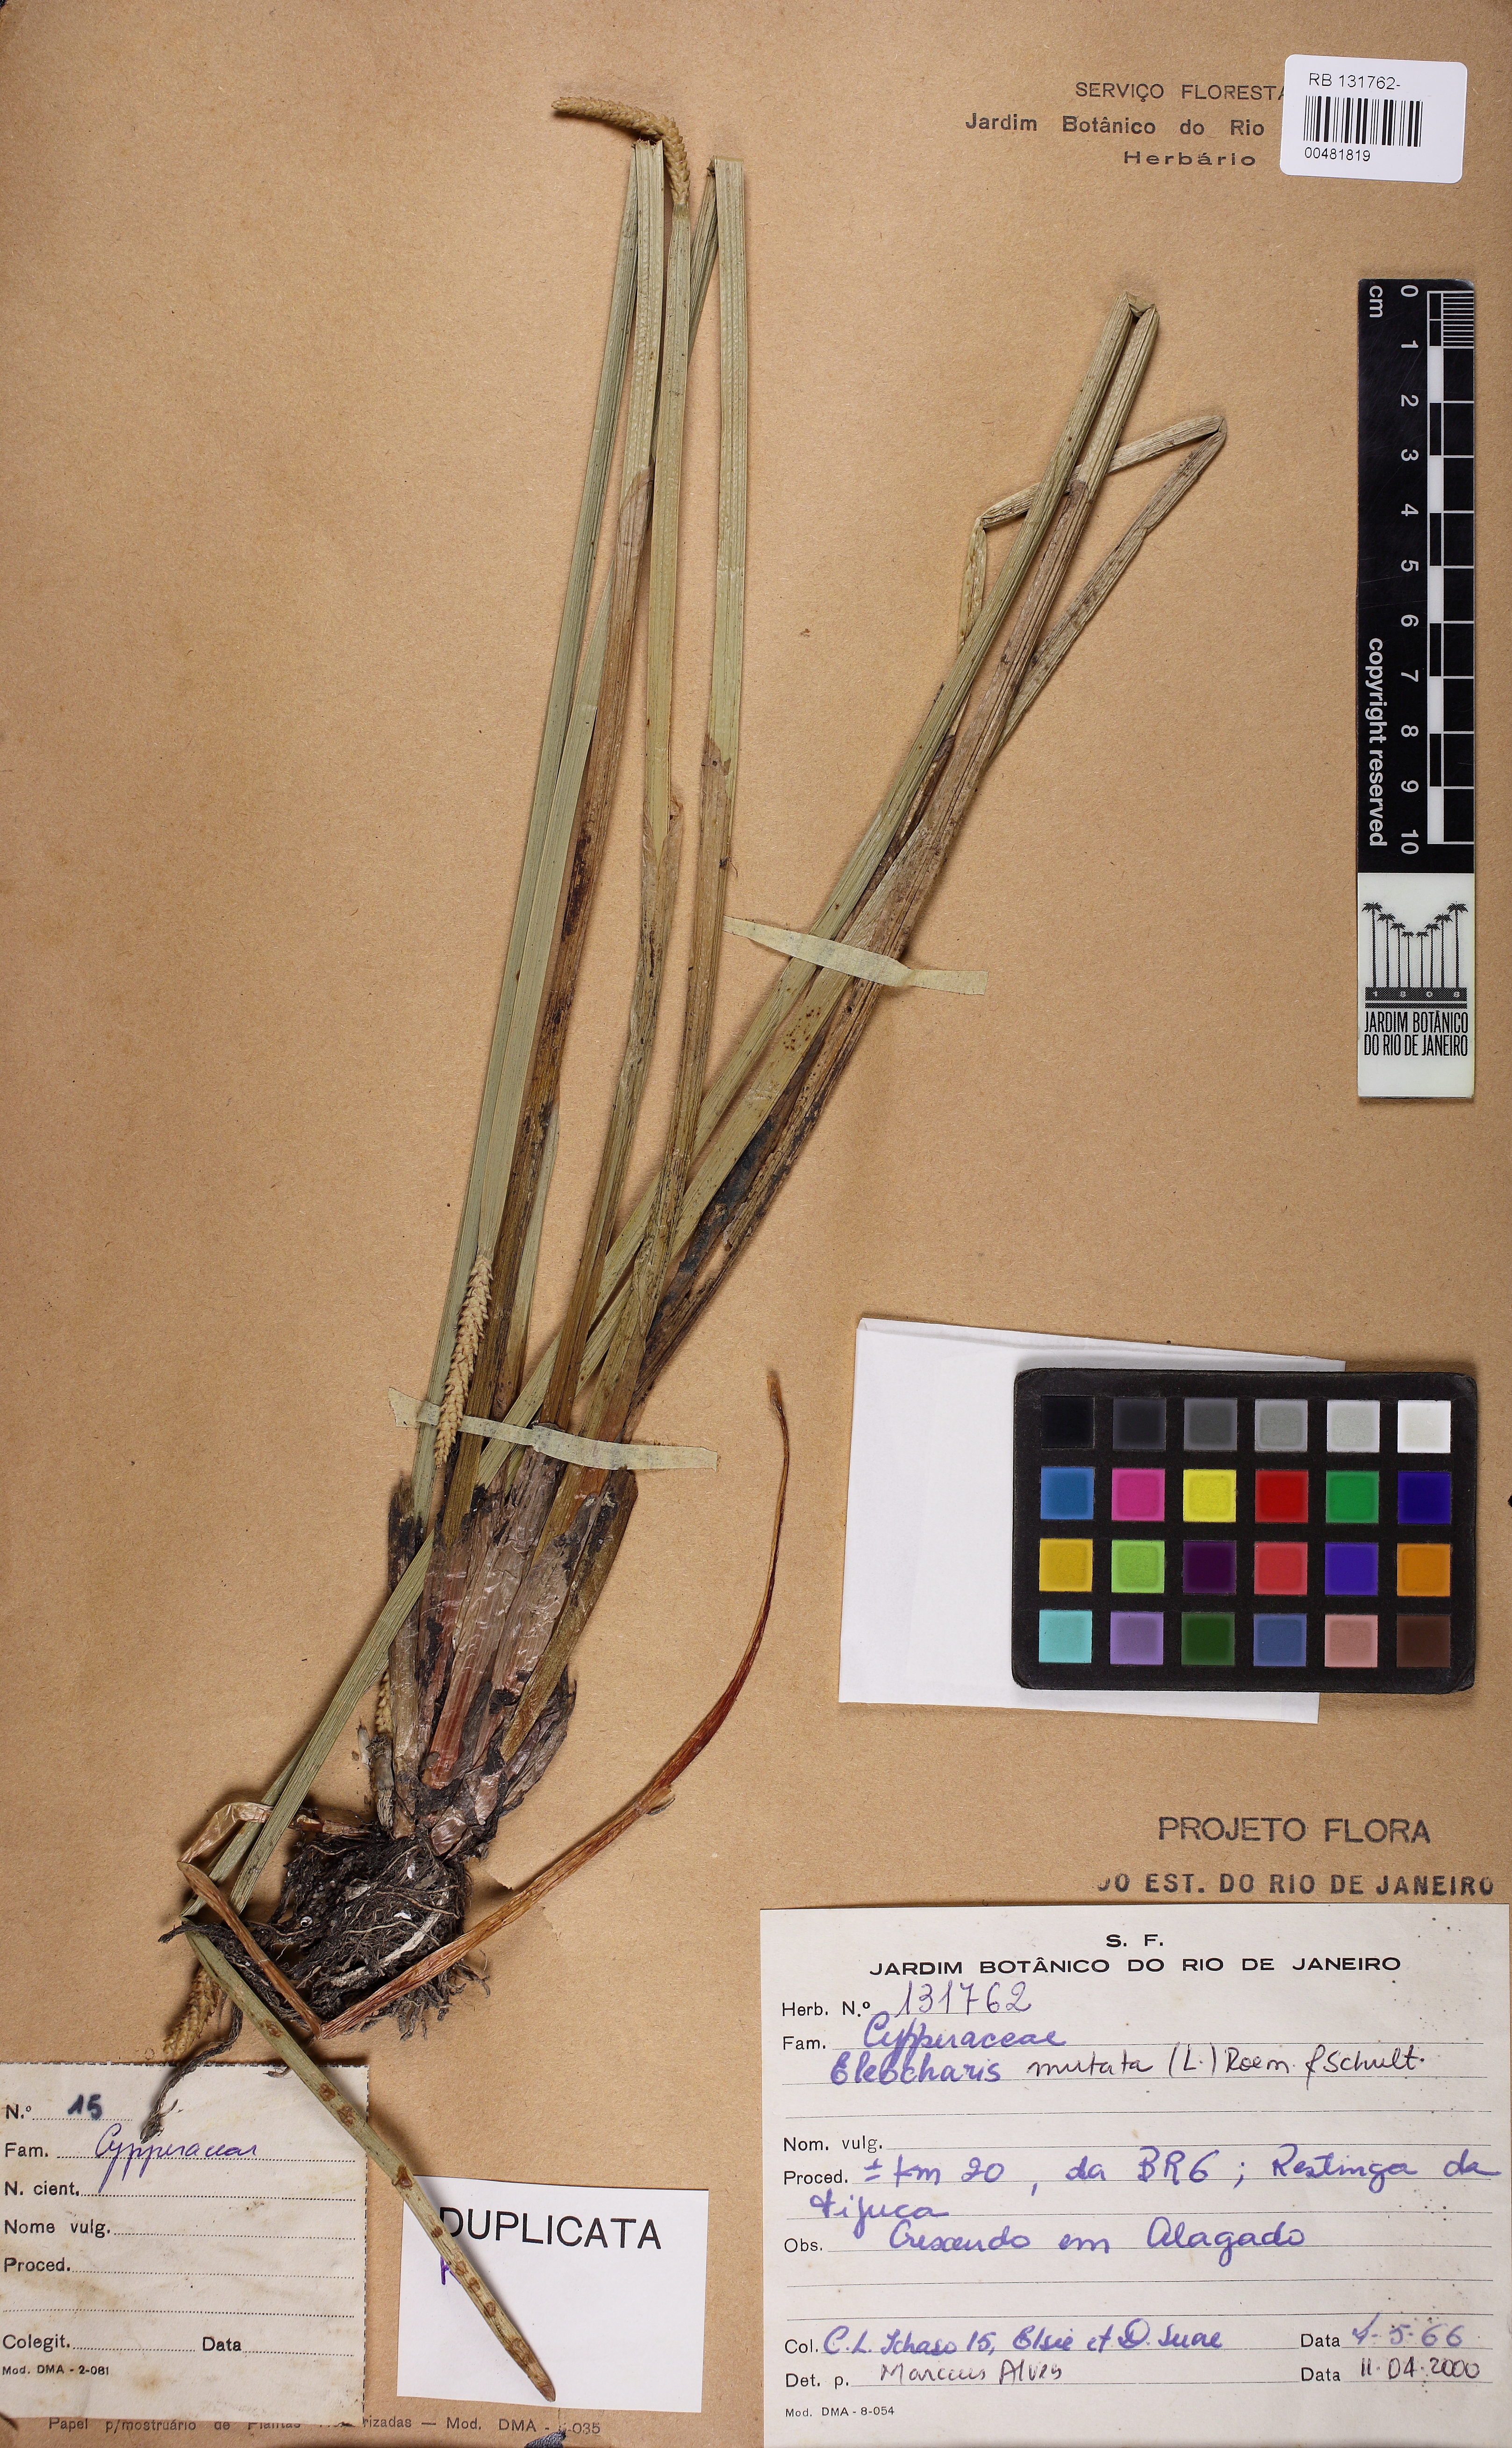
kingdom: Plantae
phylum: Tracheophyta
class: Liliopsida
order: Poales
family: Cyperaceae
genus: Eleocharis
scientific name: Eleocharis mutata
